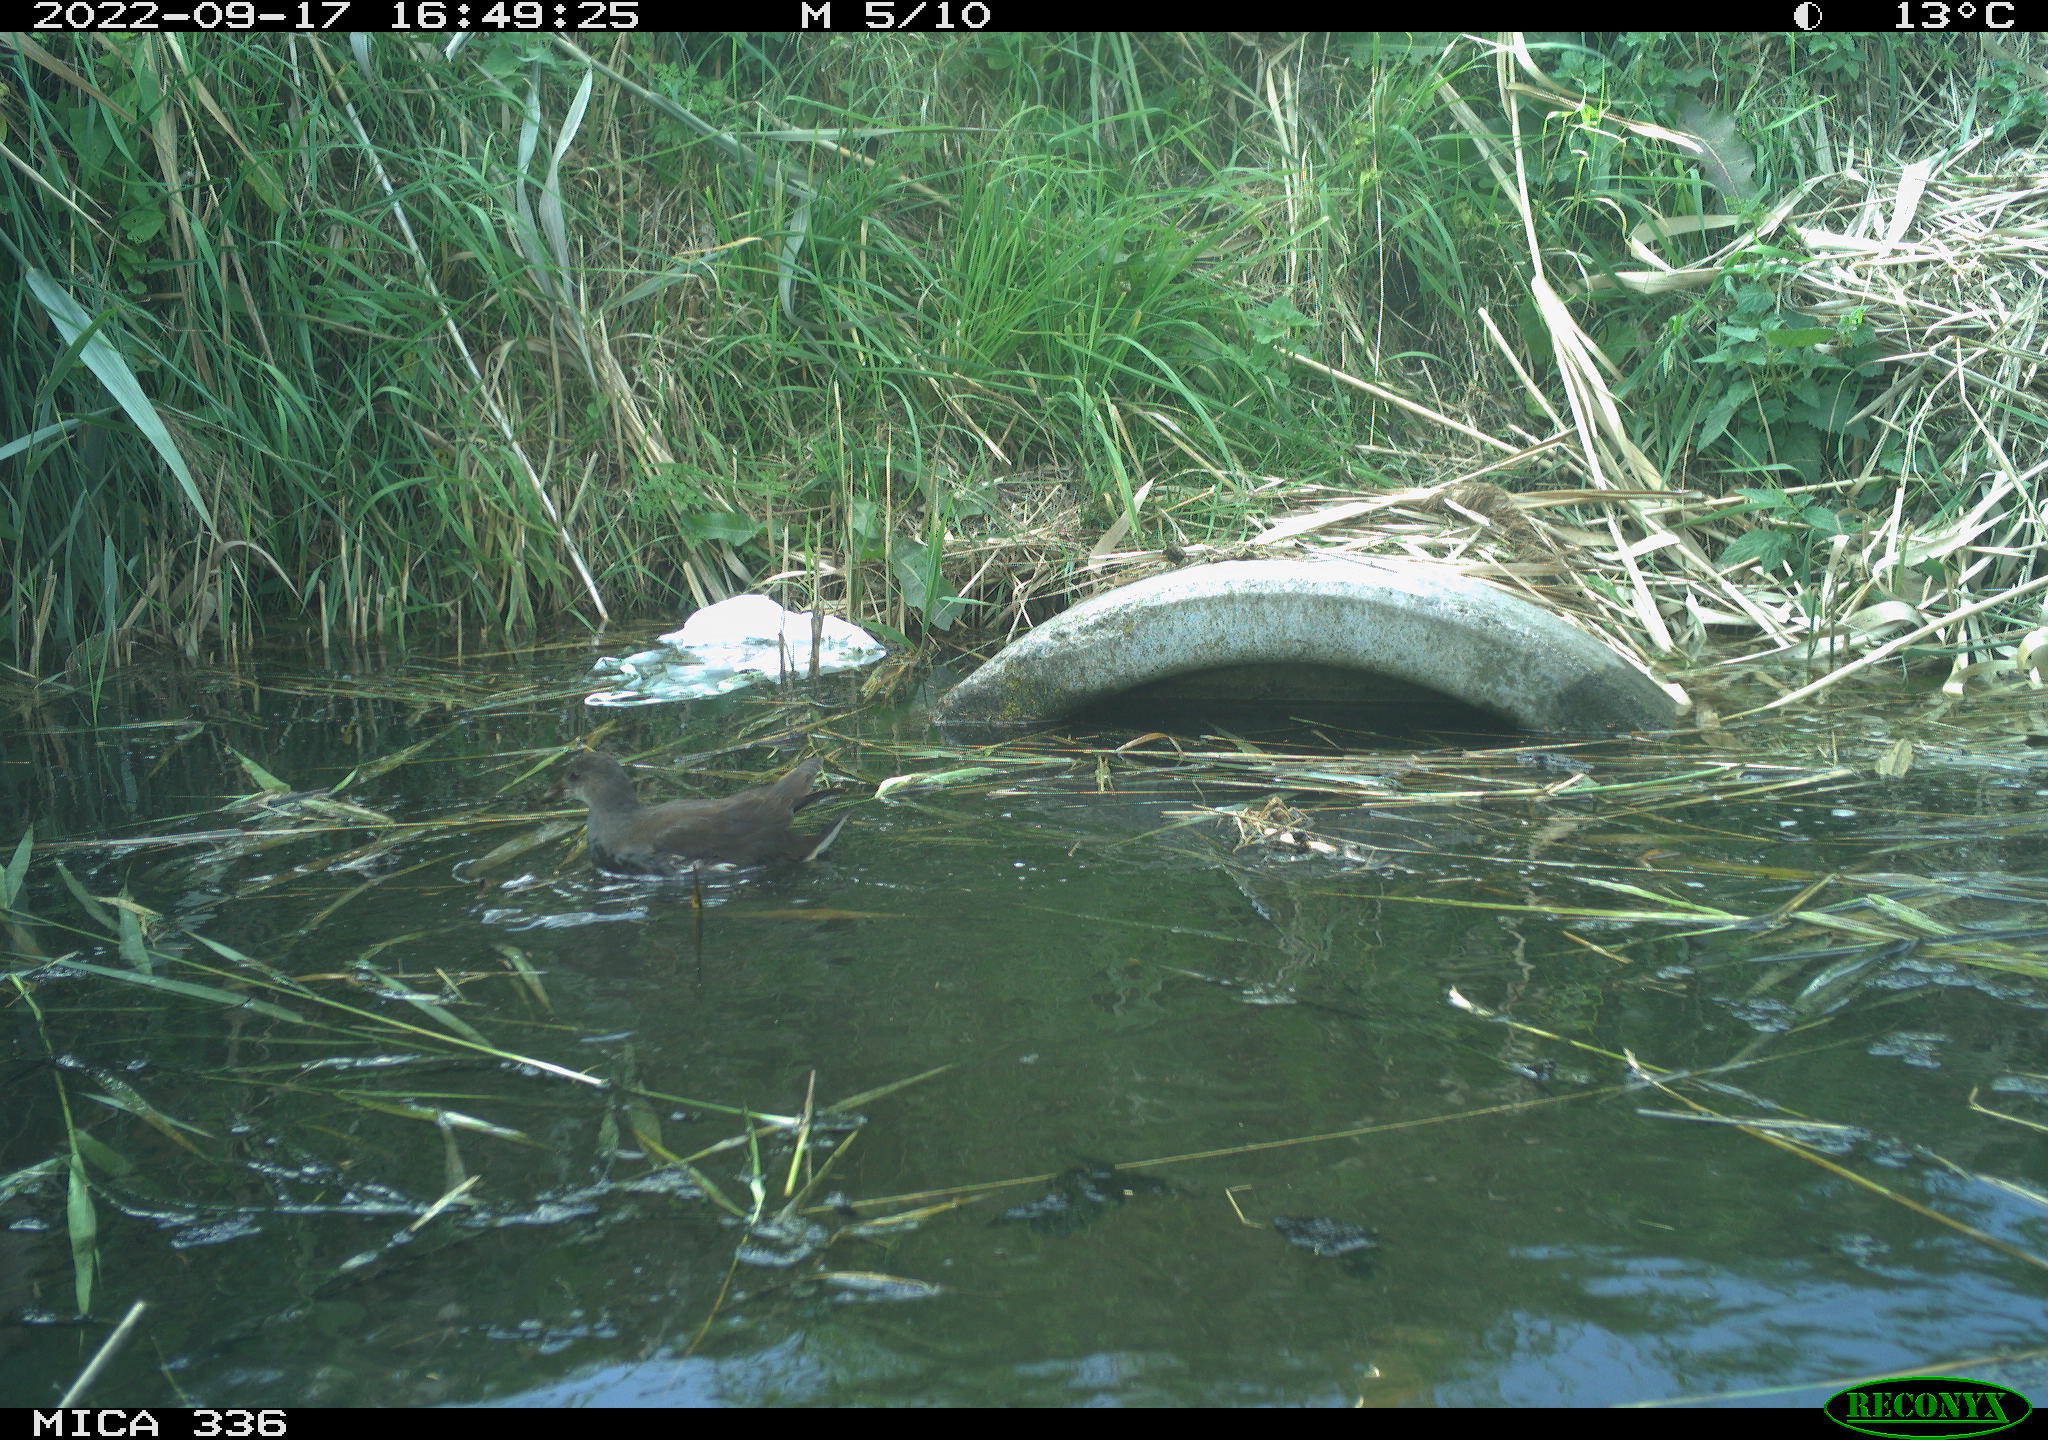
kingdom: Animalia
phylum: Chordata
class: Aves
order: Gruiformes
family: Rallidae
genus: Gallinula
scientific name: Gallinula chloropus
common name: Common moorhen
